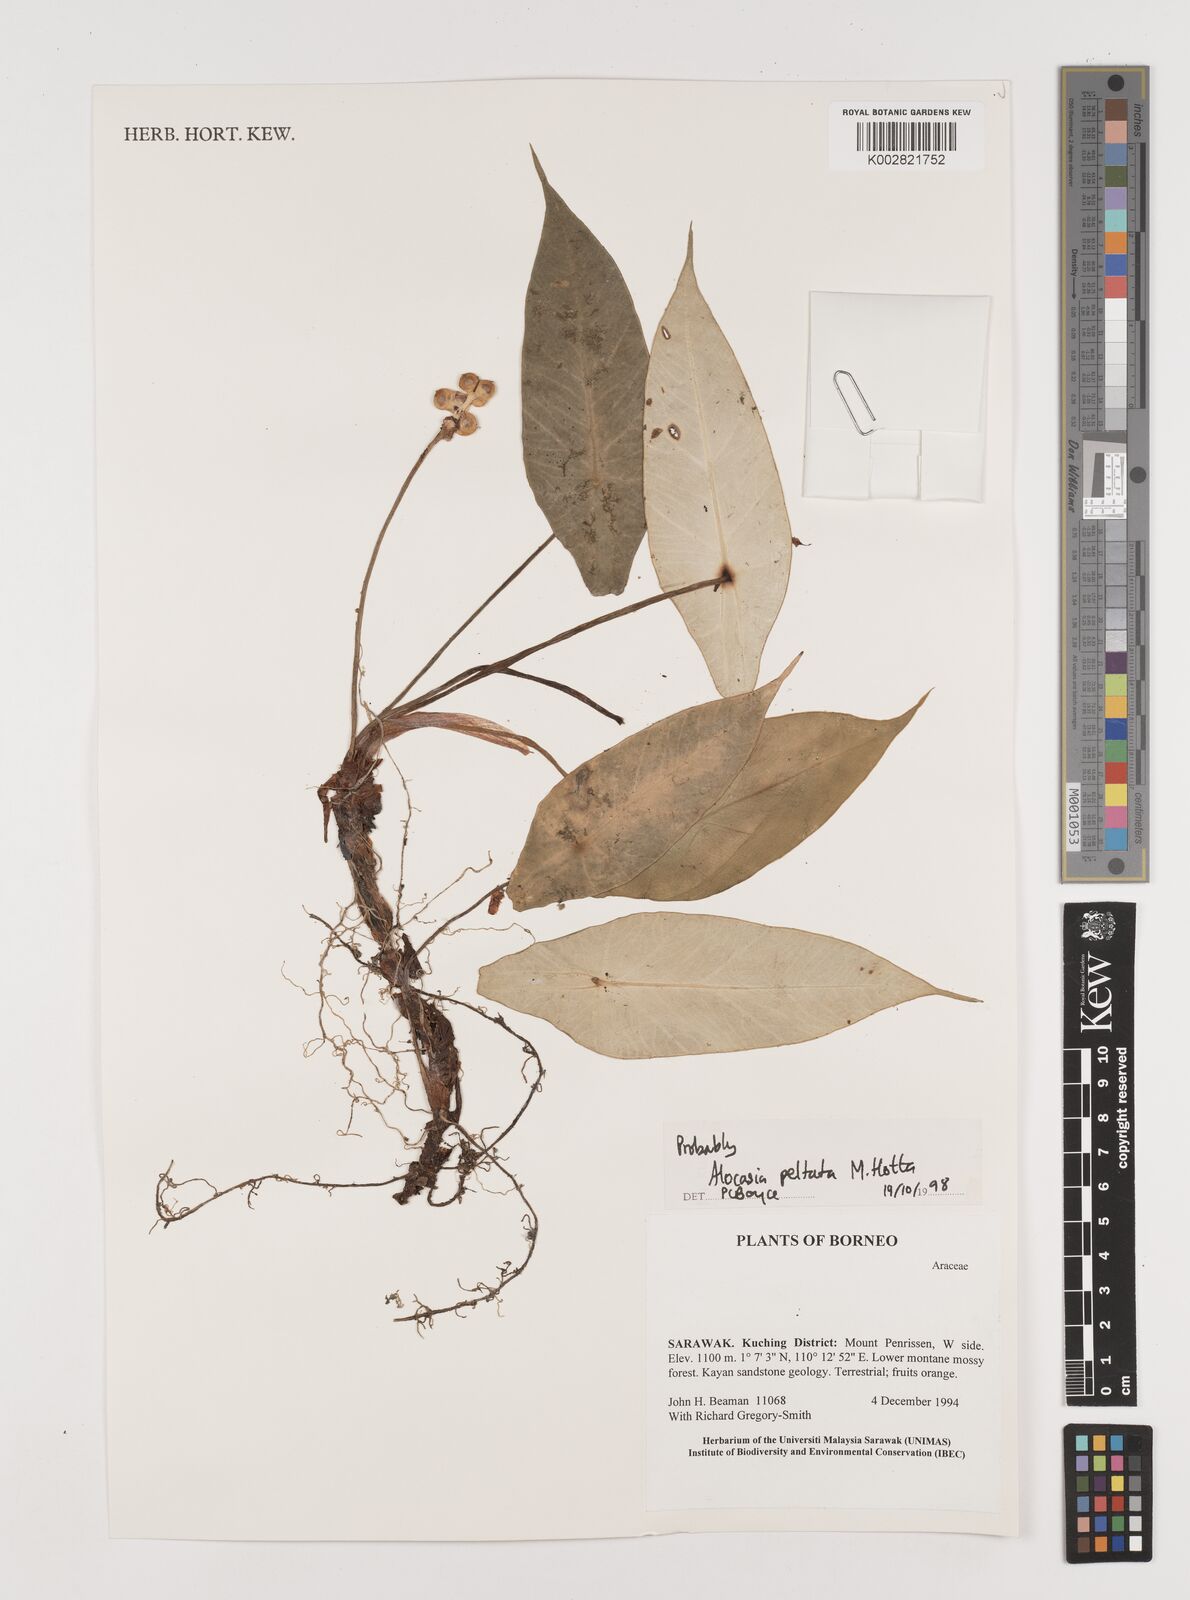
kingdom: Plantae
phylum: Tracheophyta
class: Liliopsida
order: Alismatales
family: Araceae
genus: Alocasia
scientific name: Alocasia peltata
